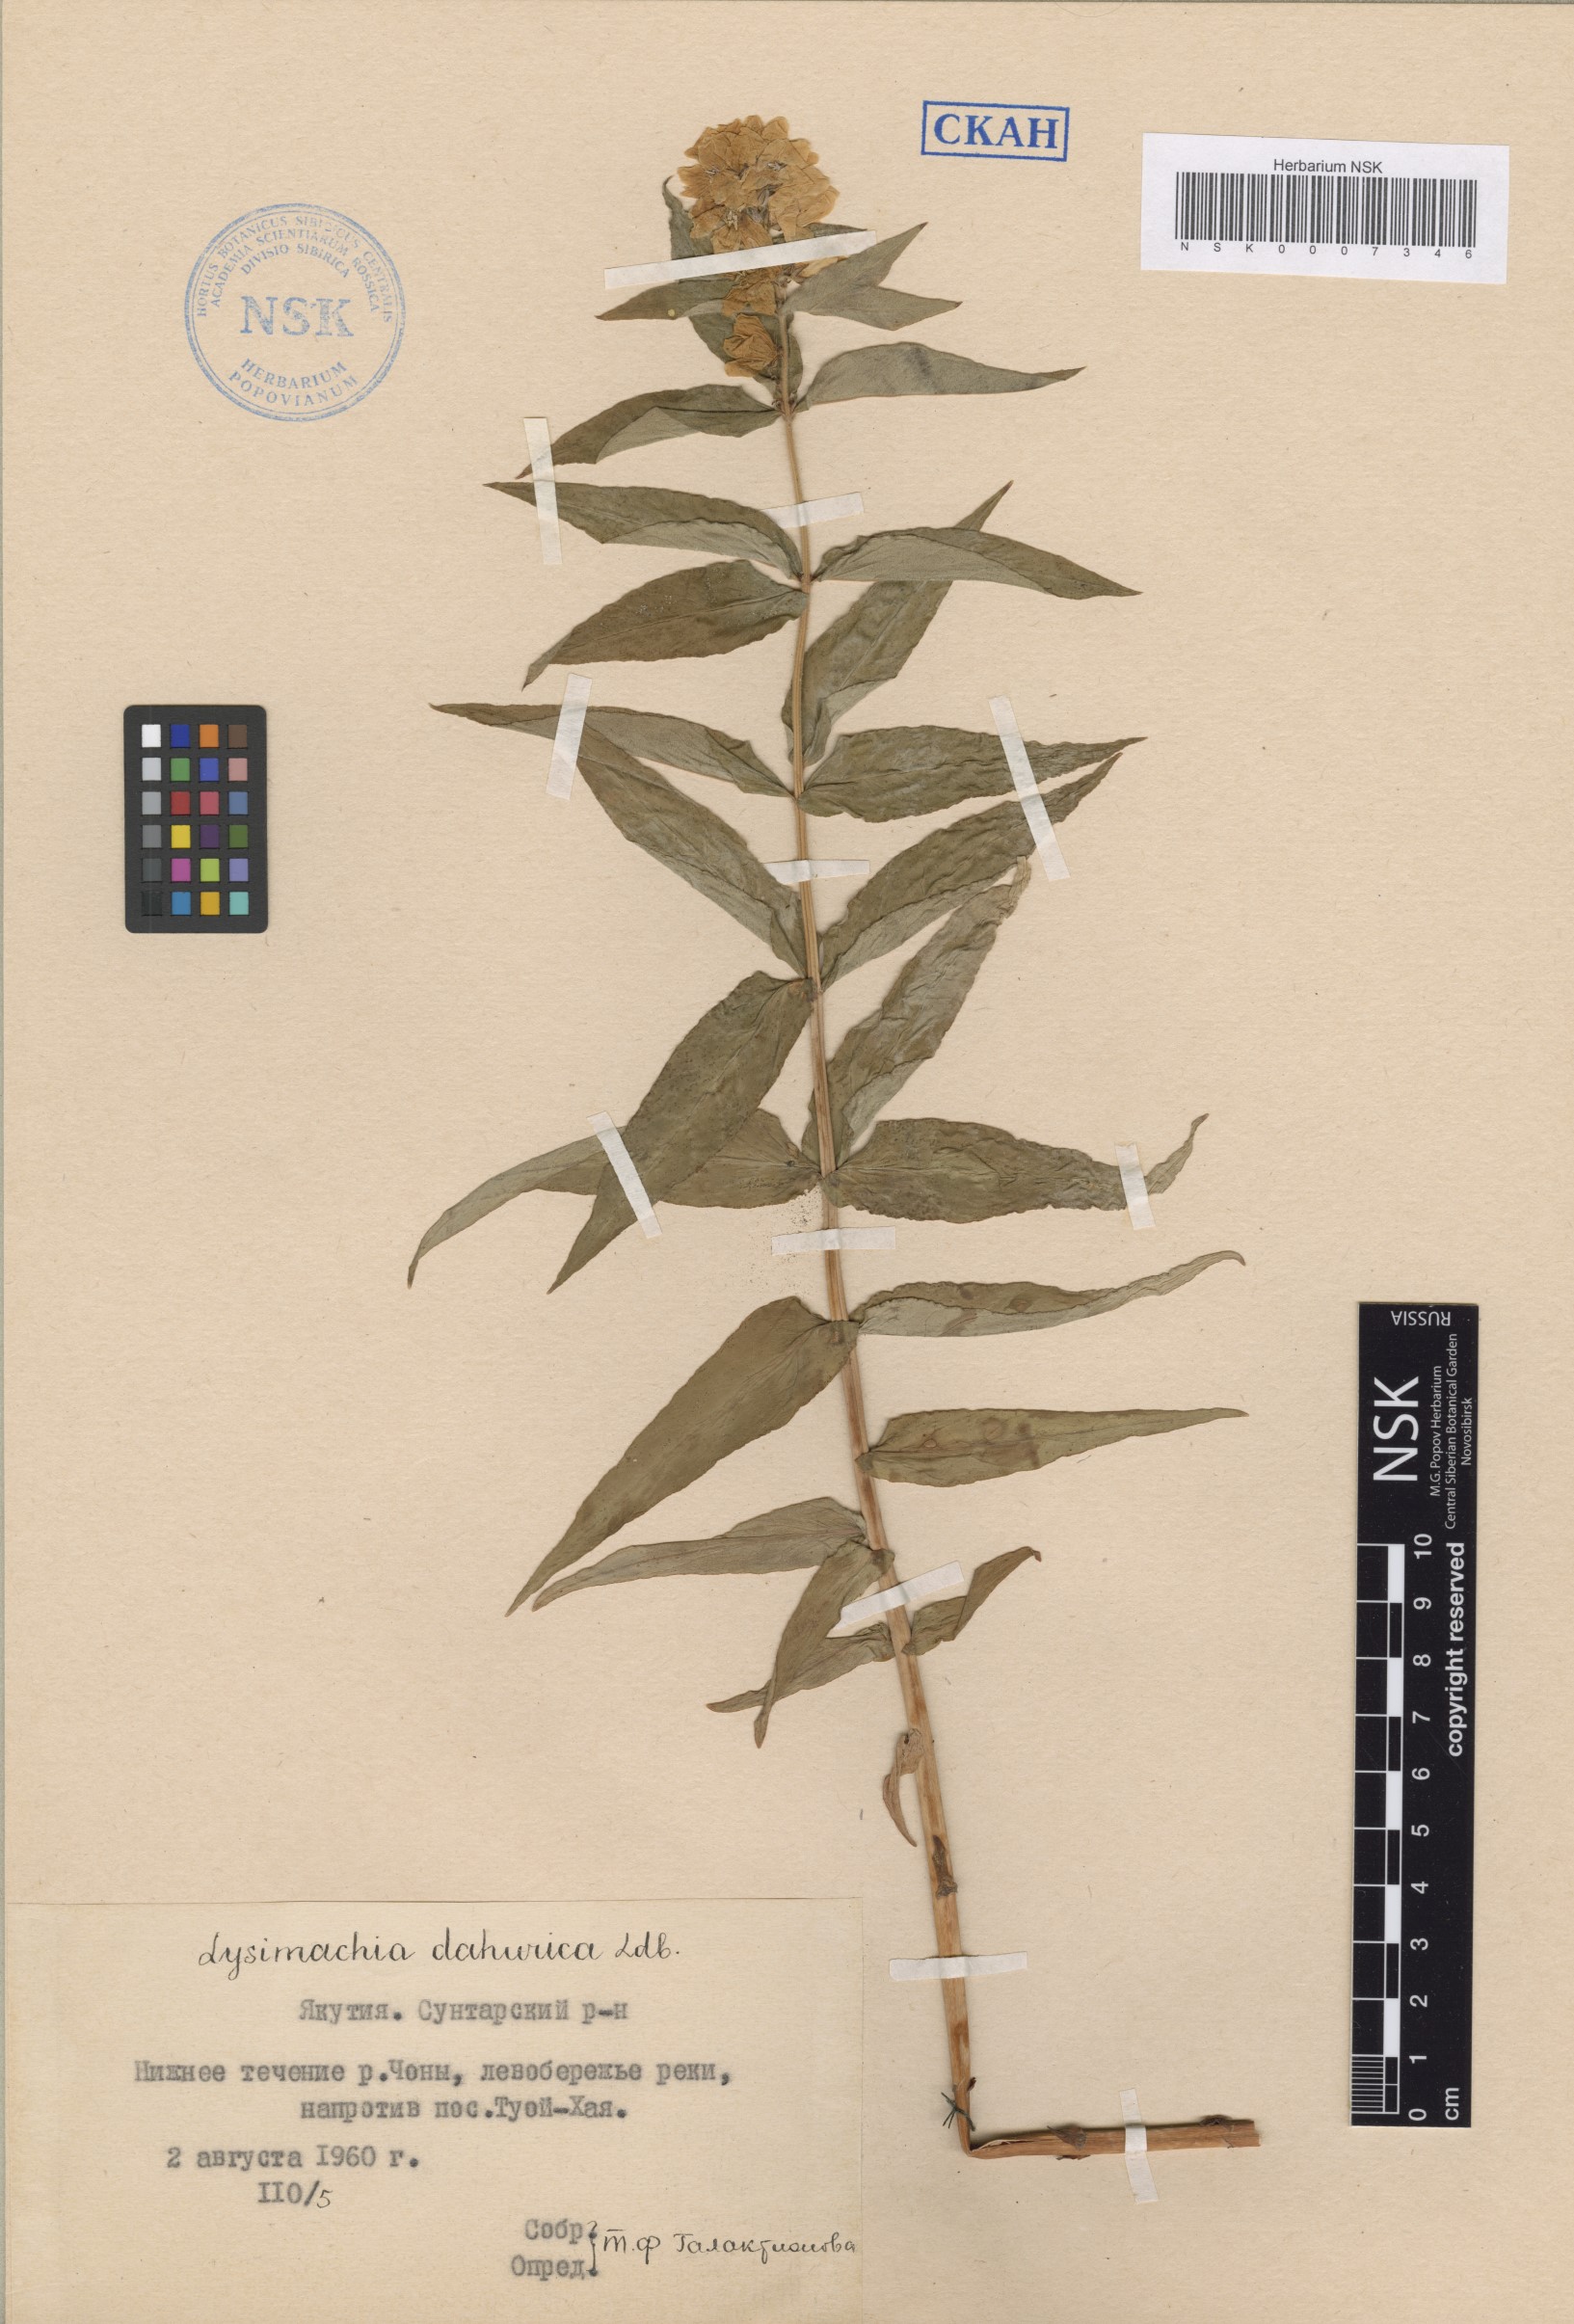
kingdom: Plantae
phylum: Tracheophyta
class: Magnoliopsida
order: Ericales
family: Primulaceae
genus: Lysimachia
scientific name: Lysimachia davurica
